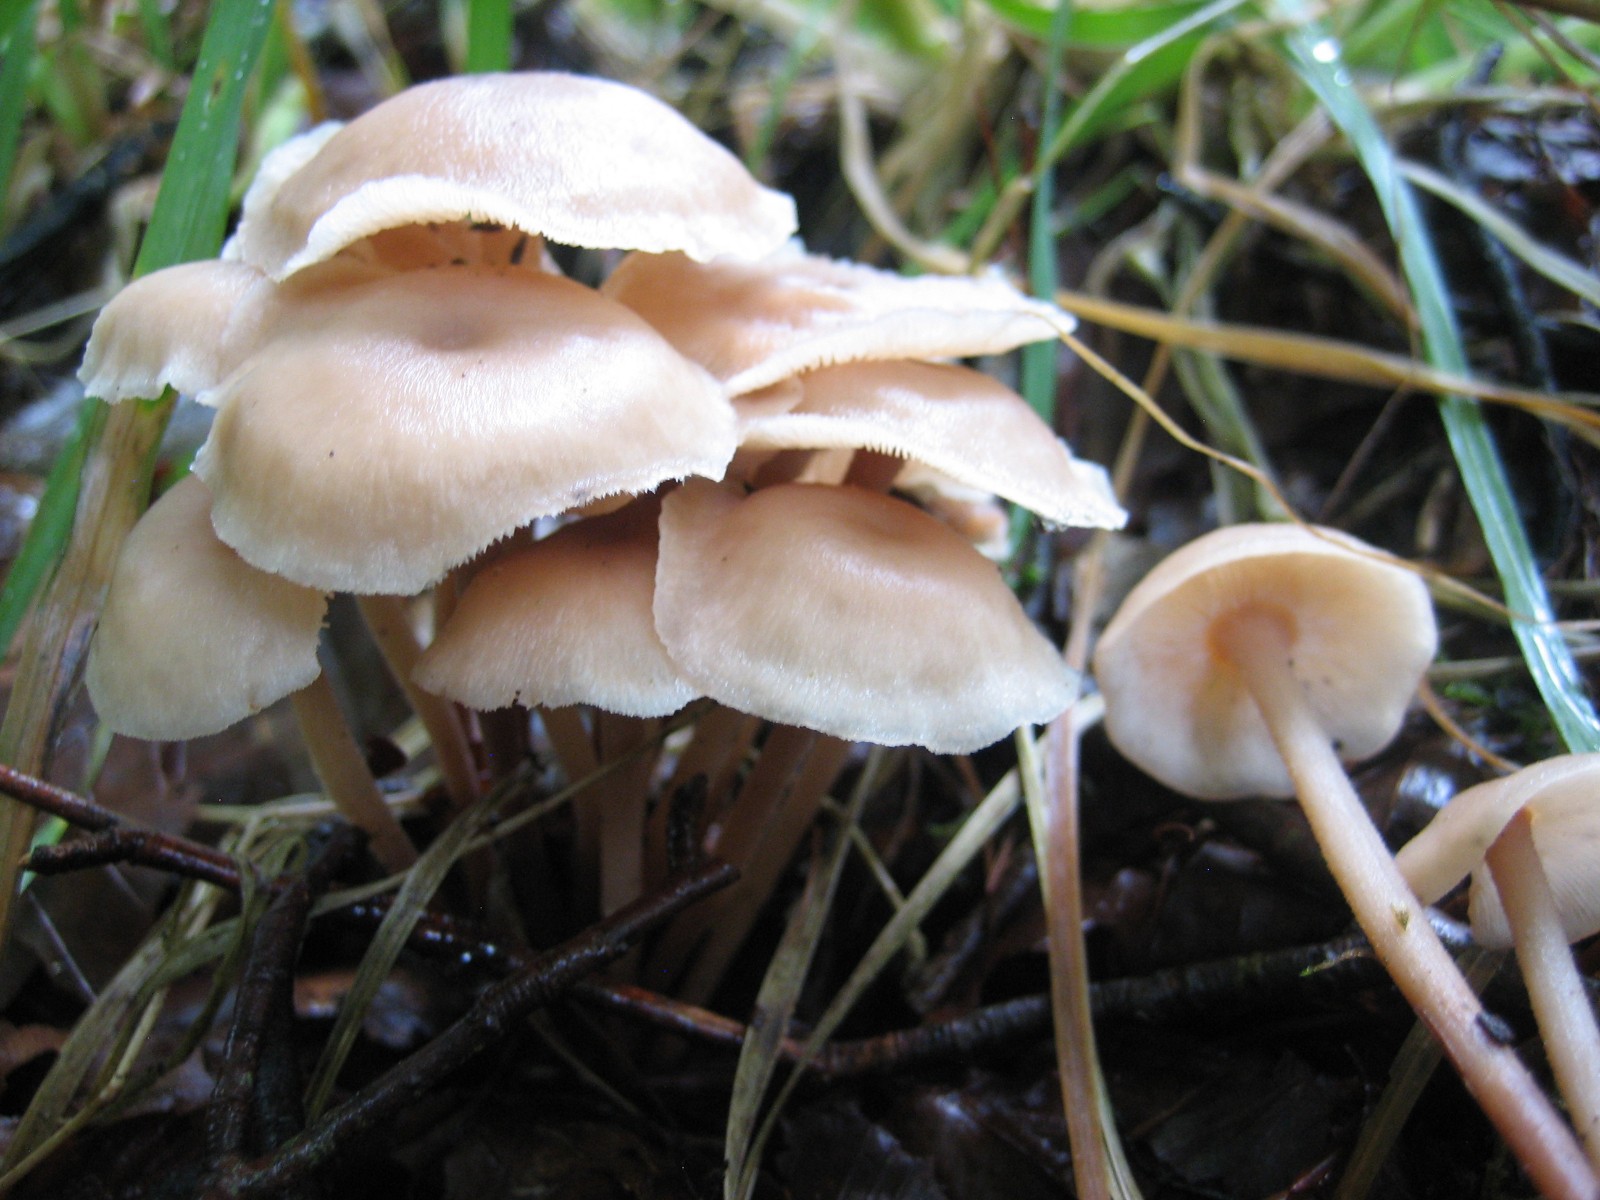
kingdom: Fungi
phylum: Basidiomycota
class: Agaricomycetes
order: Agaricales
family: Omphalotaceae
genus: Collybiopsis
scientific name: Collybiopsis confluens
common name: knippe-fladhat
